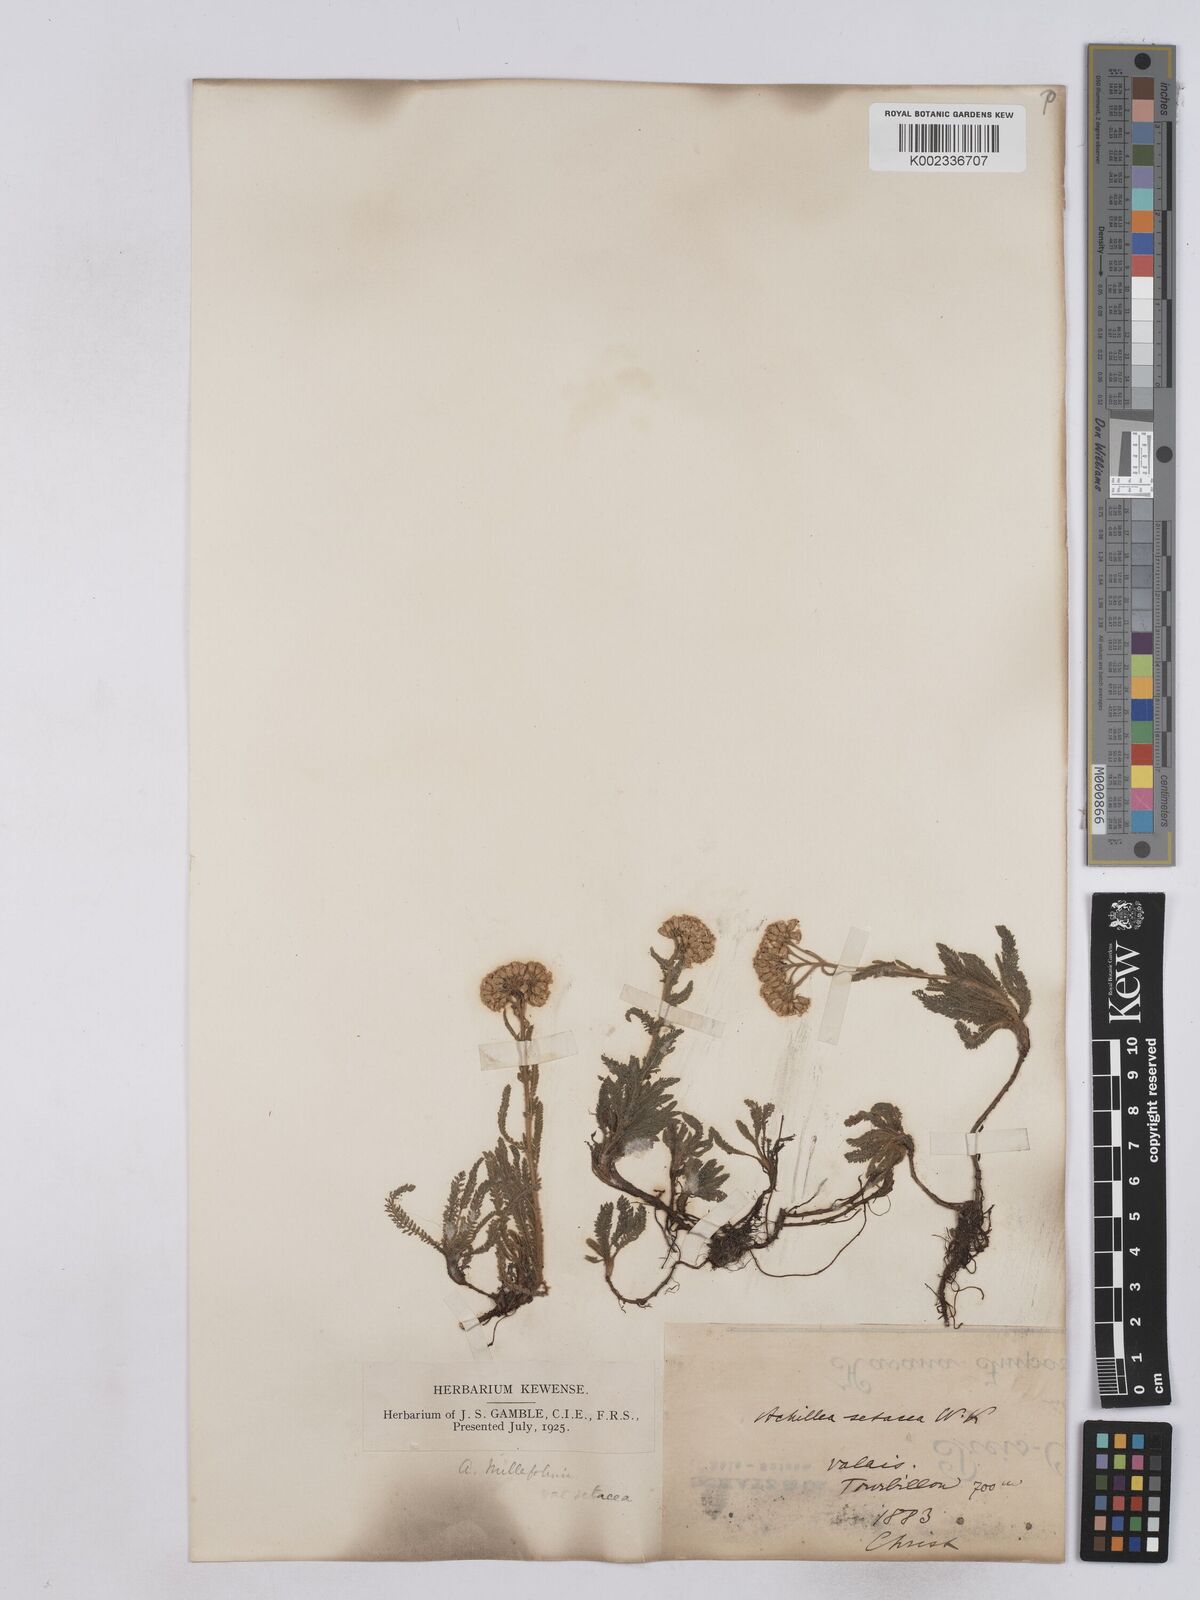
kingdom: Plantae
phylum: Tracheophyta
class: Magnoliopsida
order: Asterales
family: Asteraceae
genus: Achillea
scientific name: Achillea setacea
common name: Bristly yarrow
